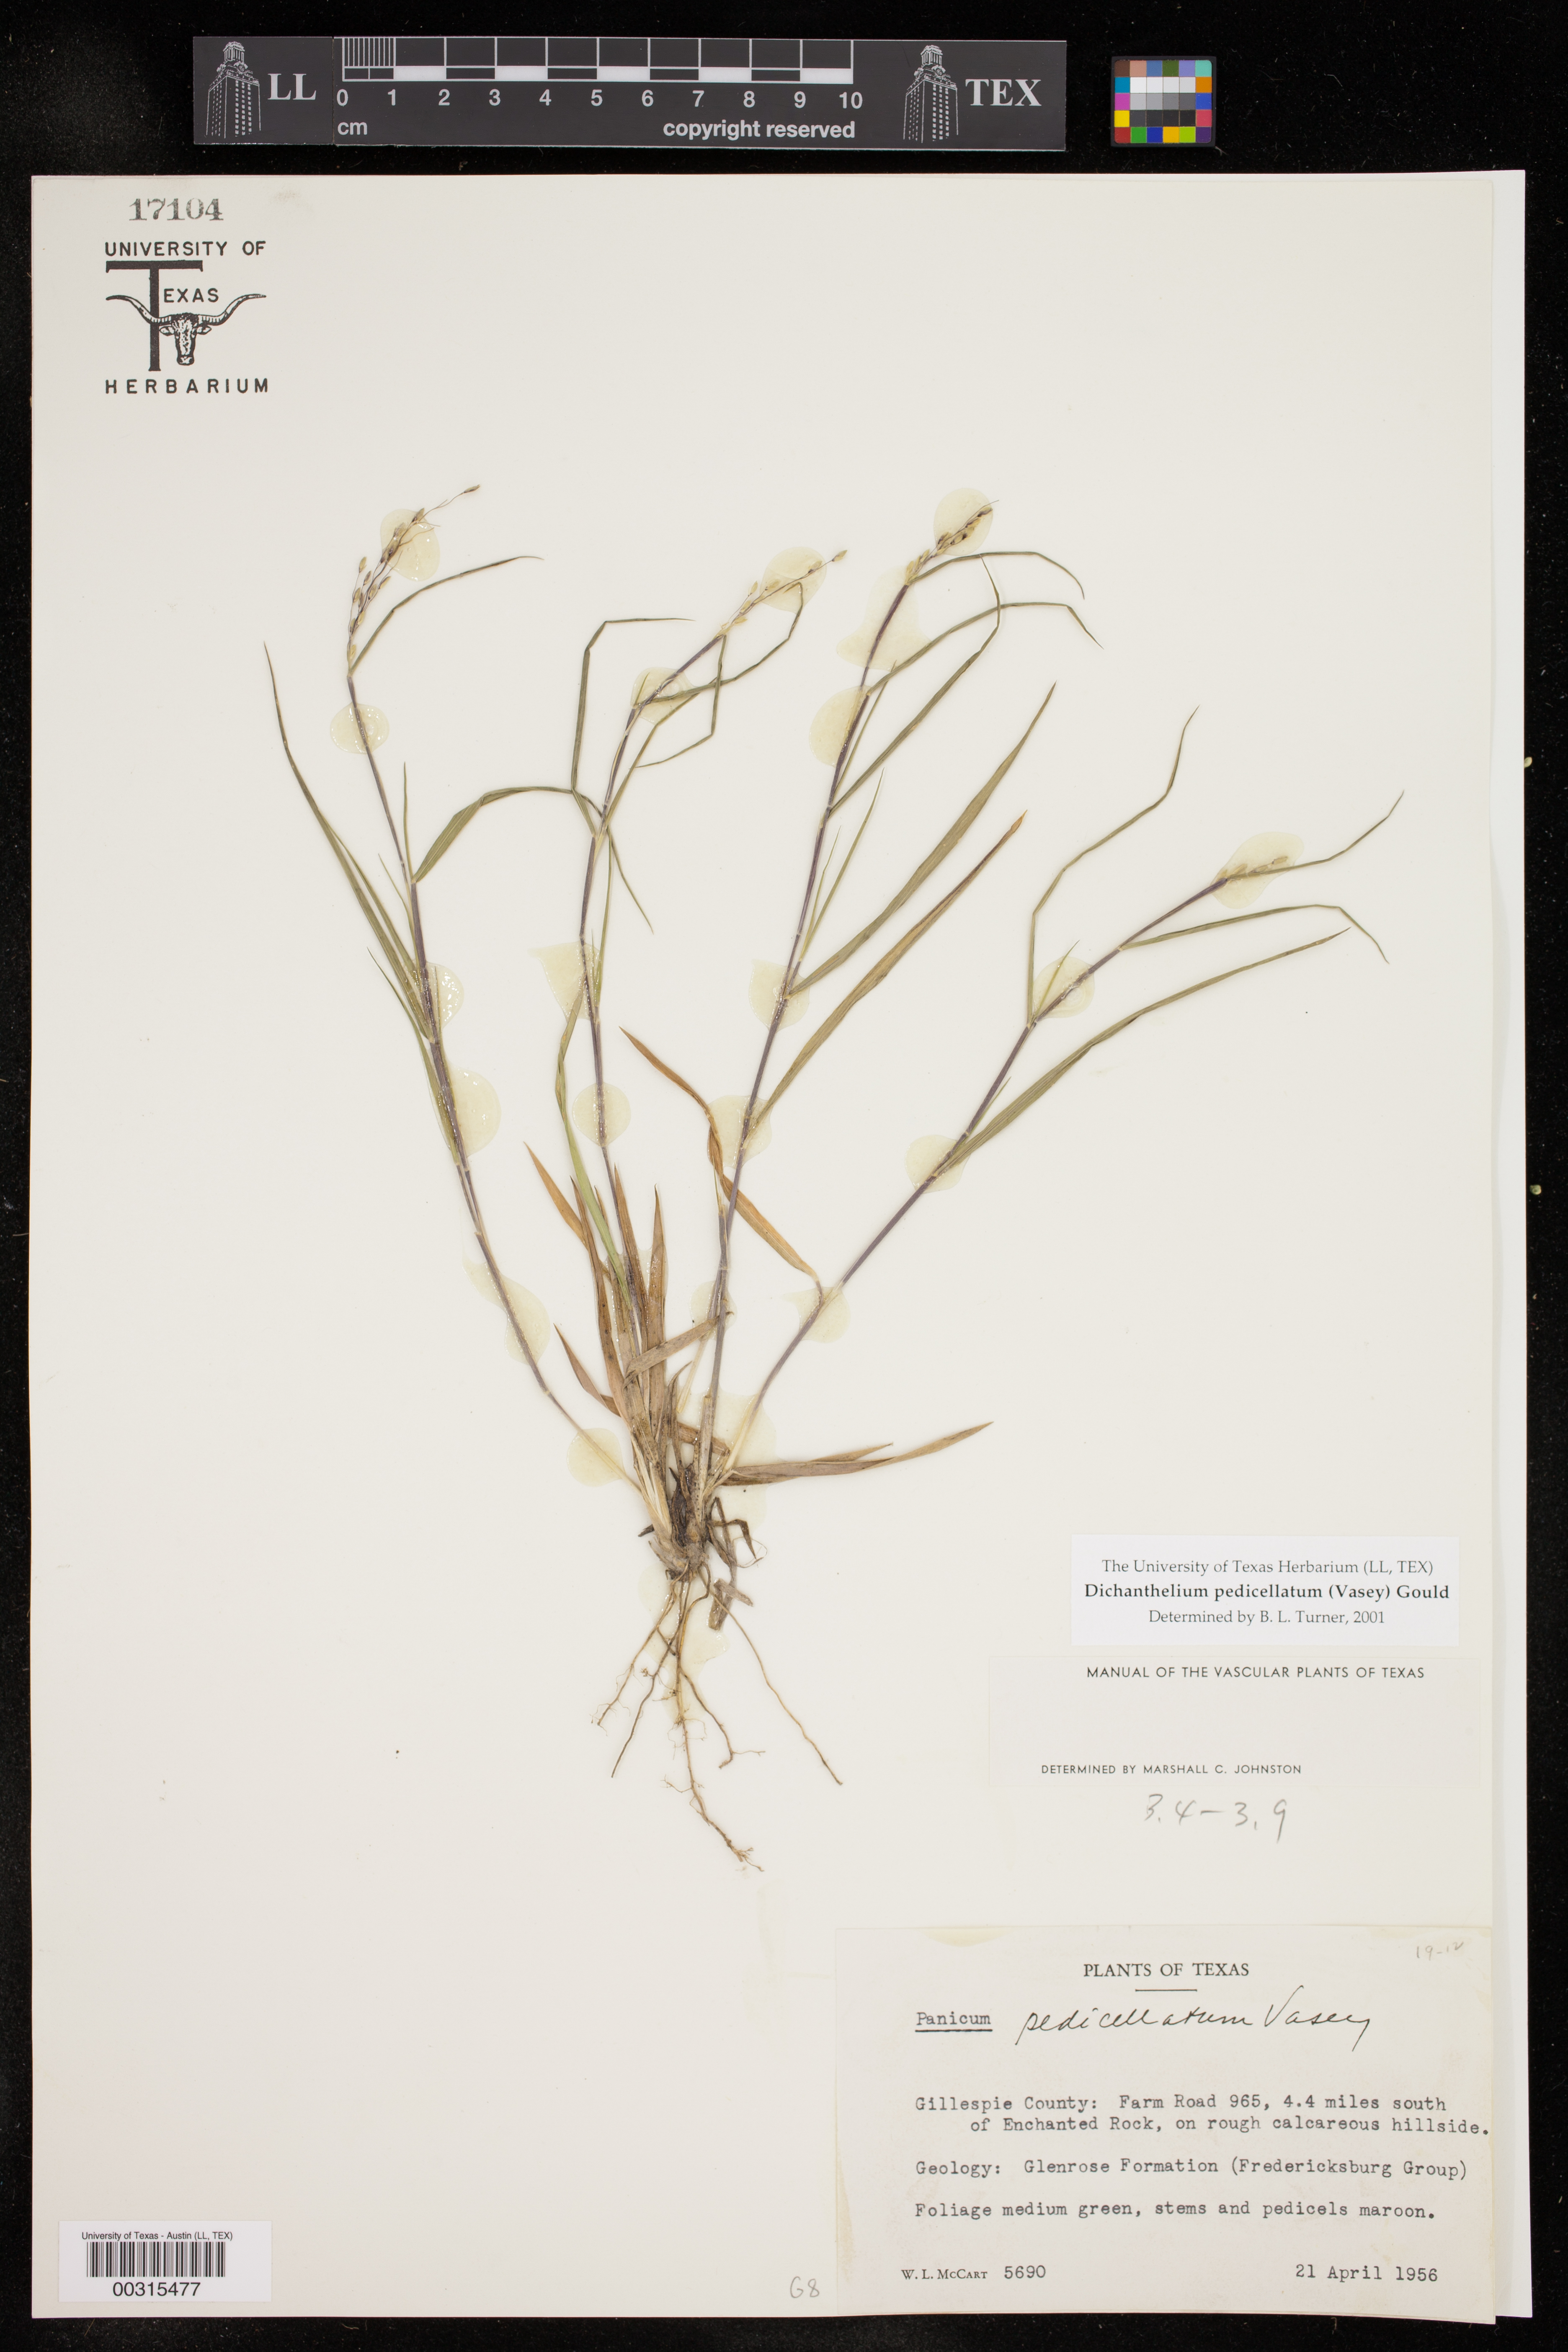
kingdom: Plantae
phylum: Tracheophyta
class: Liliopsida
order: Poales
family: Poaceae
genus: Dichanthelium
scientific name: Dichanthelium transiens
